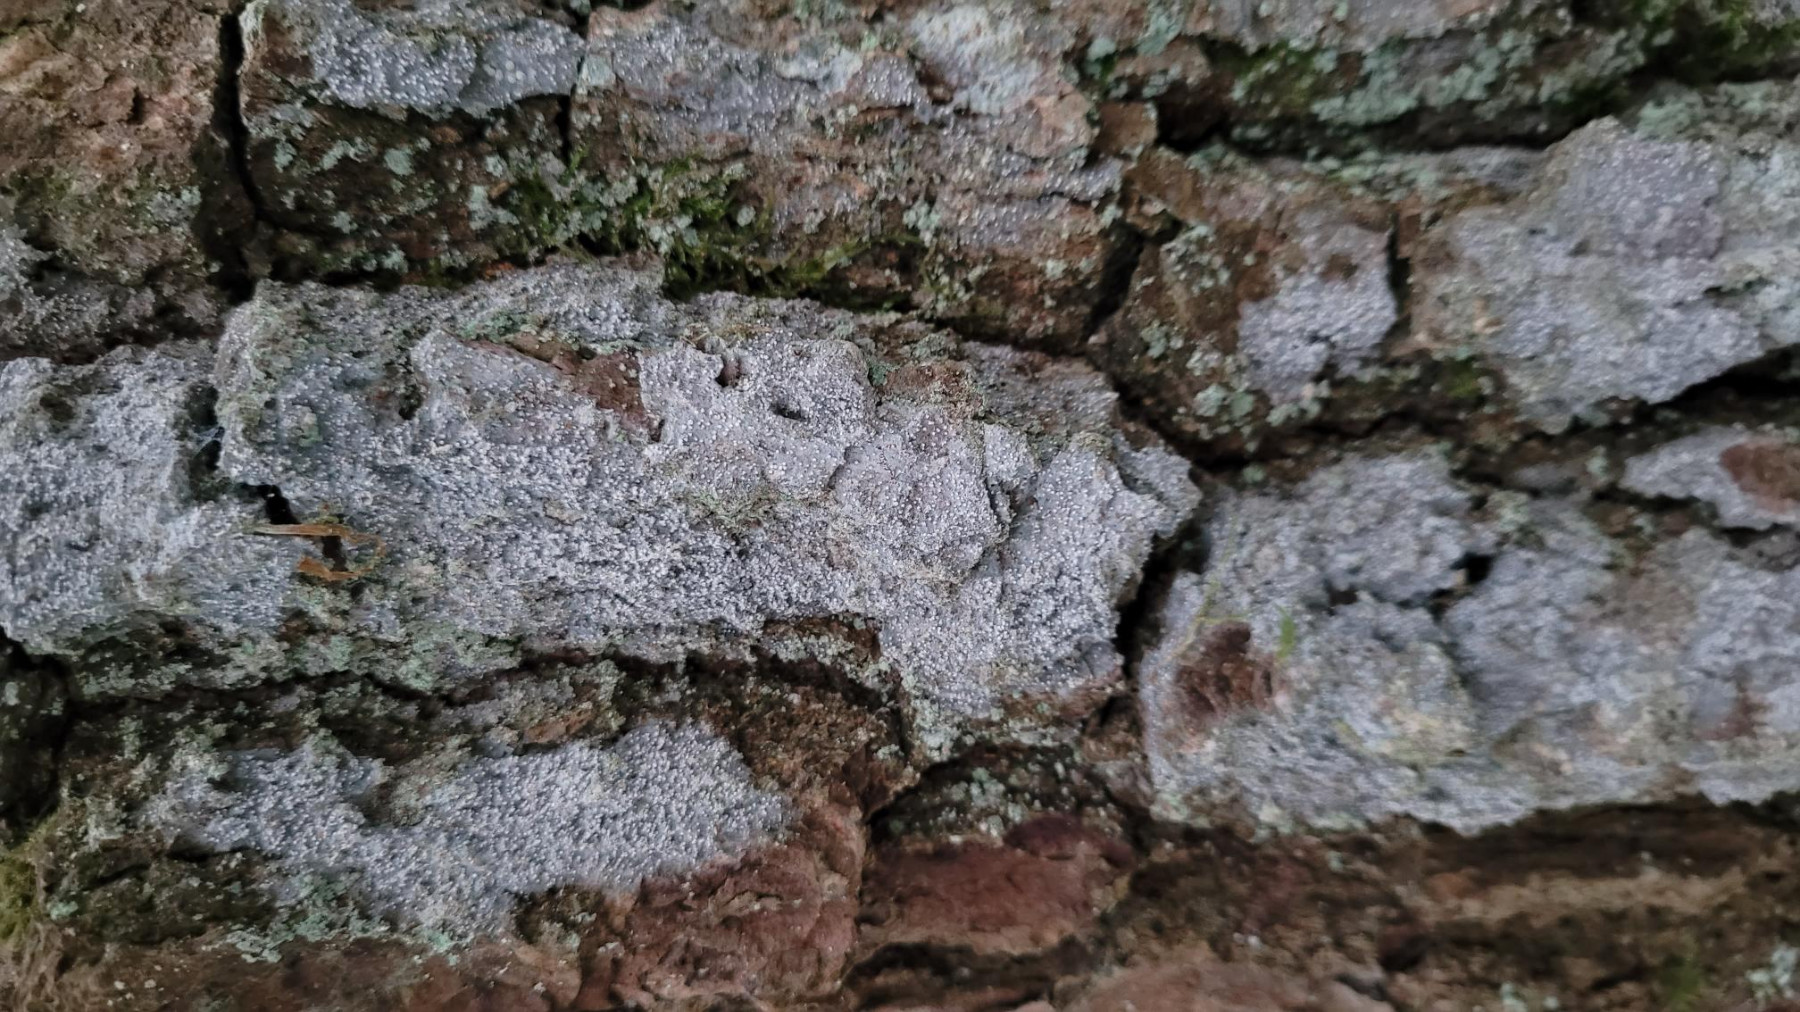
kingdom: Fungi
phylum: Ascomycota
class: Arthoniomycetes
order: Arthoniales
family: Roccellaceae
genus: Lecanactis
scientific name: Lecanactis abietina
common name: grå dugskivelav
